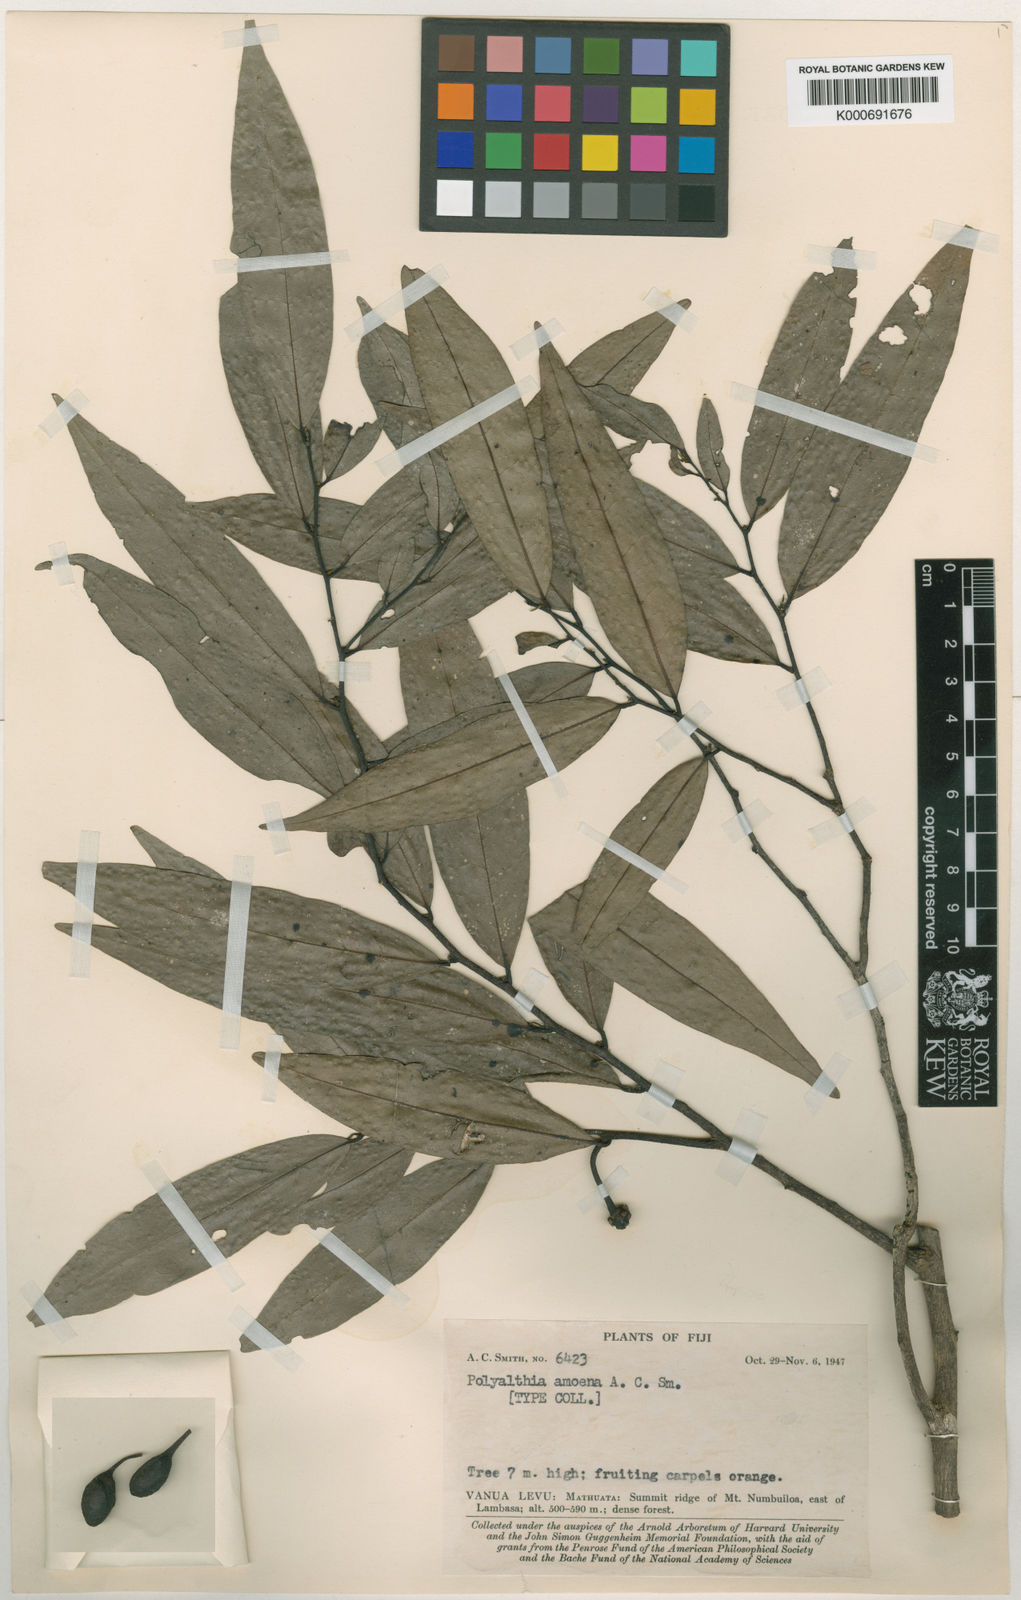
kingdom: Plantae
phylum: Tracheophyta
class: Magnoliopsida
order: Magnoliales
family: Annonaceae
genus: Hubera
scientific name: Hubera amoena
